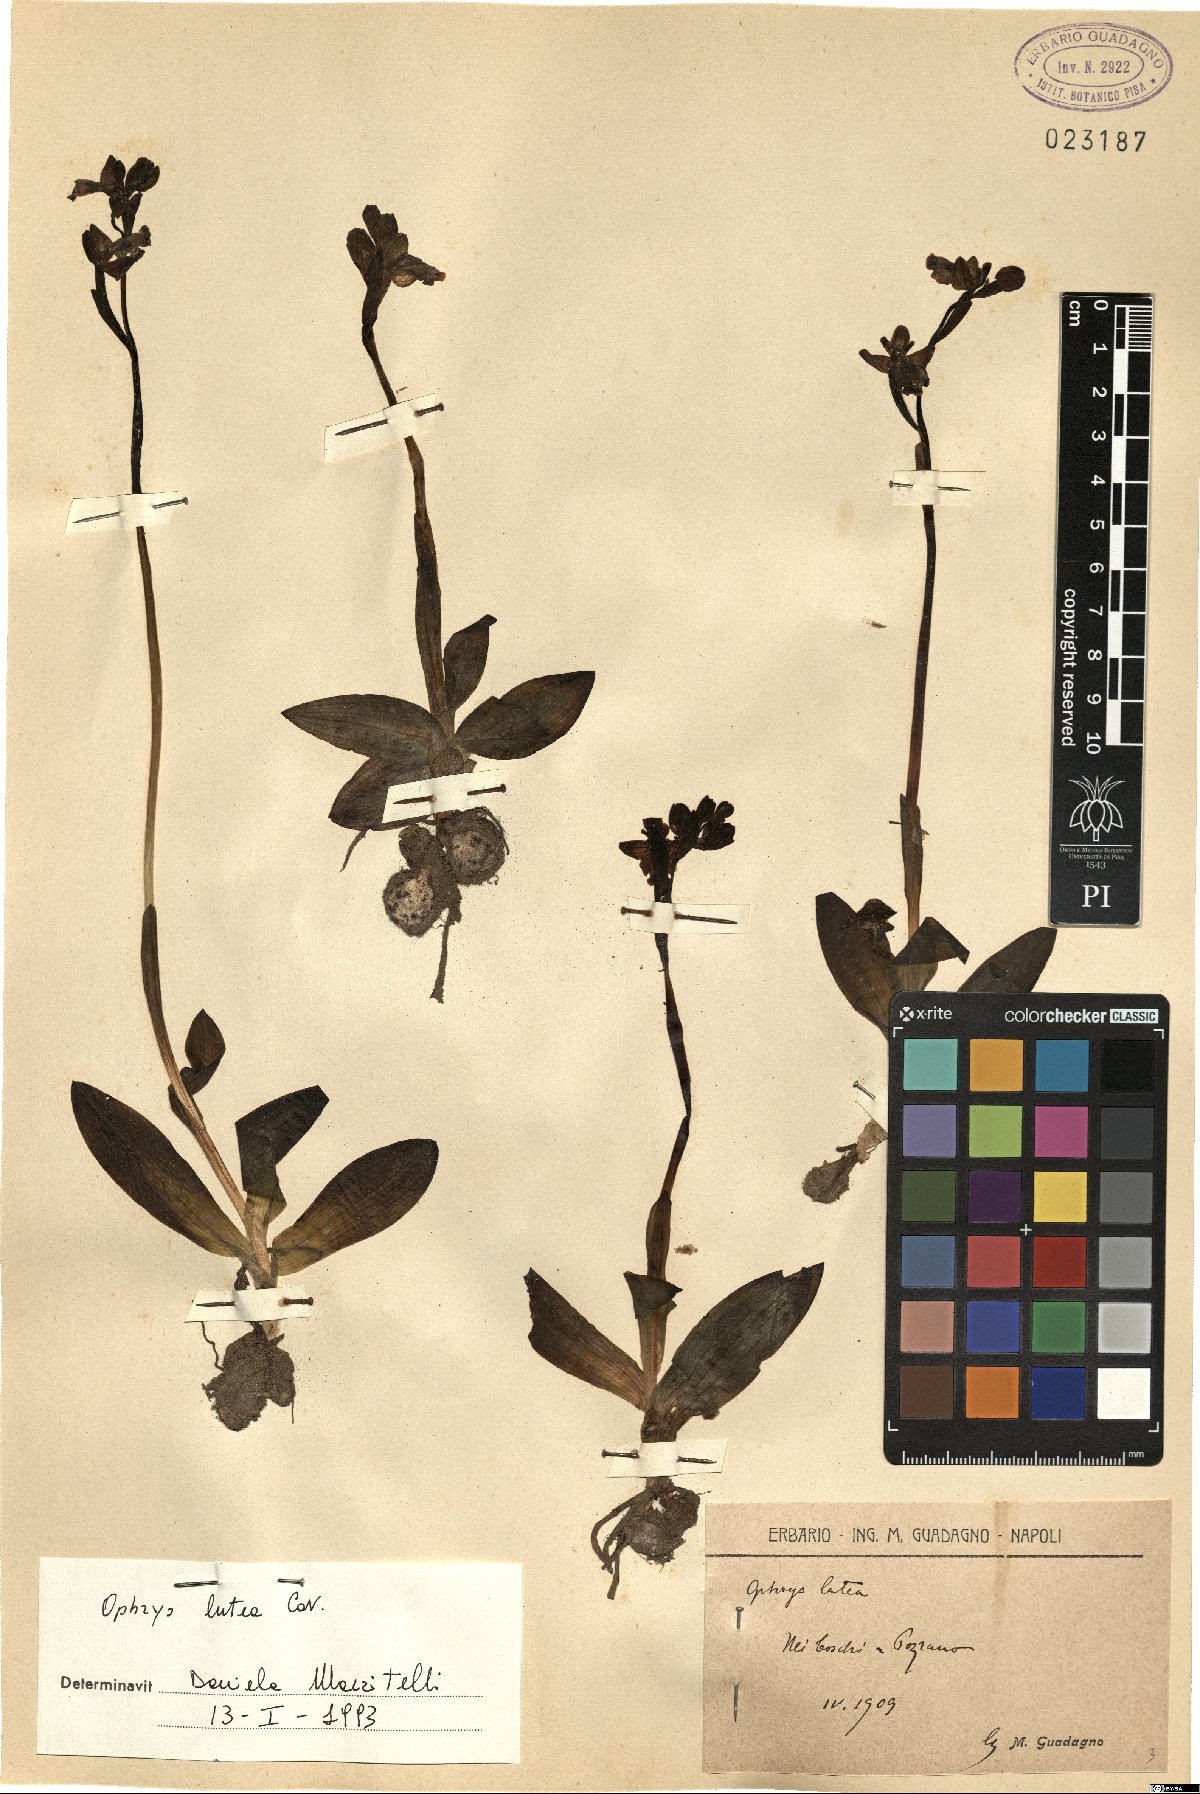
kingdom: Plantae
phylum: Tracheophyta
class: Liliopsida
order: Asparagales
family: Orchidaceae
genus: Ophrys
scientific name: Ophrys lutea
